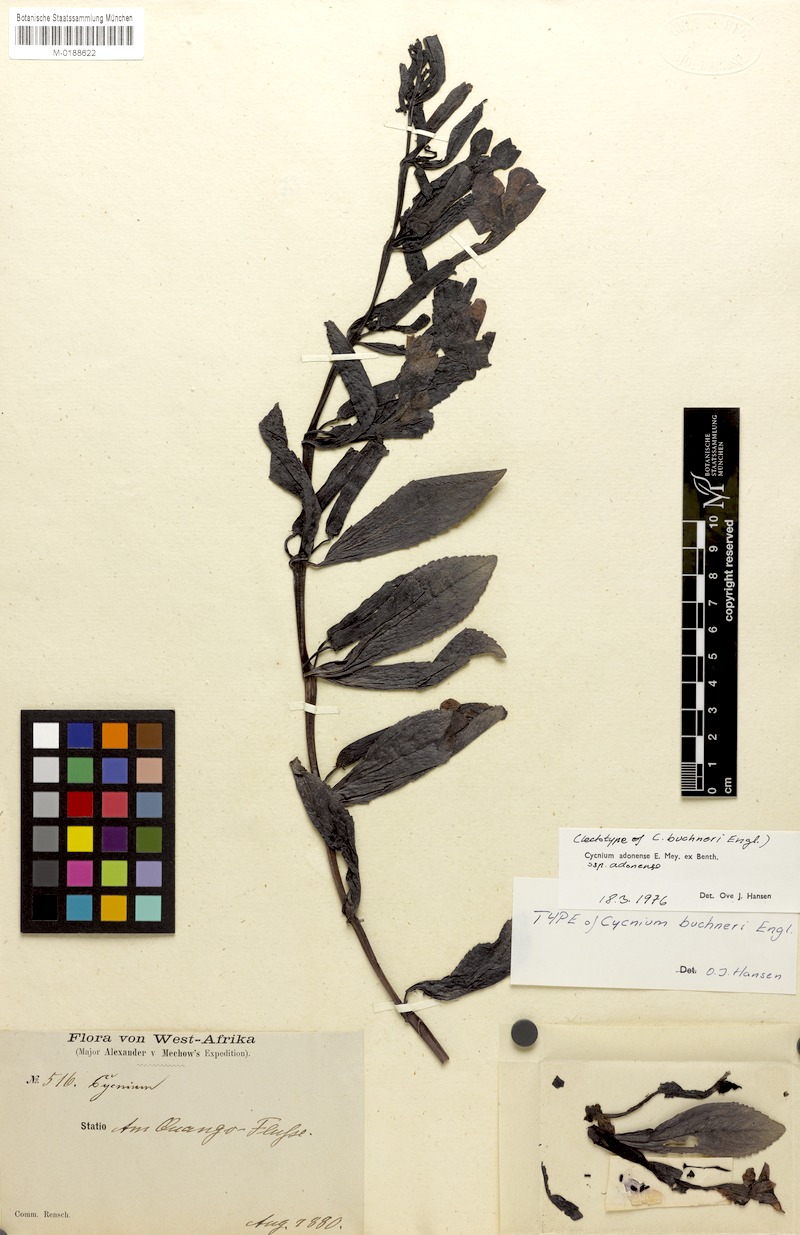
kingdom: Plantae
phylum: Tracheophyta
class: Magnoliopsida
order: Lamiales
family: Orobanchaceae
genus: Cycnium
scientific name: Cycnium adonense
